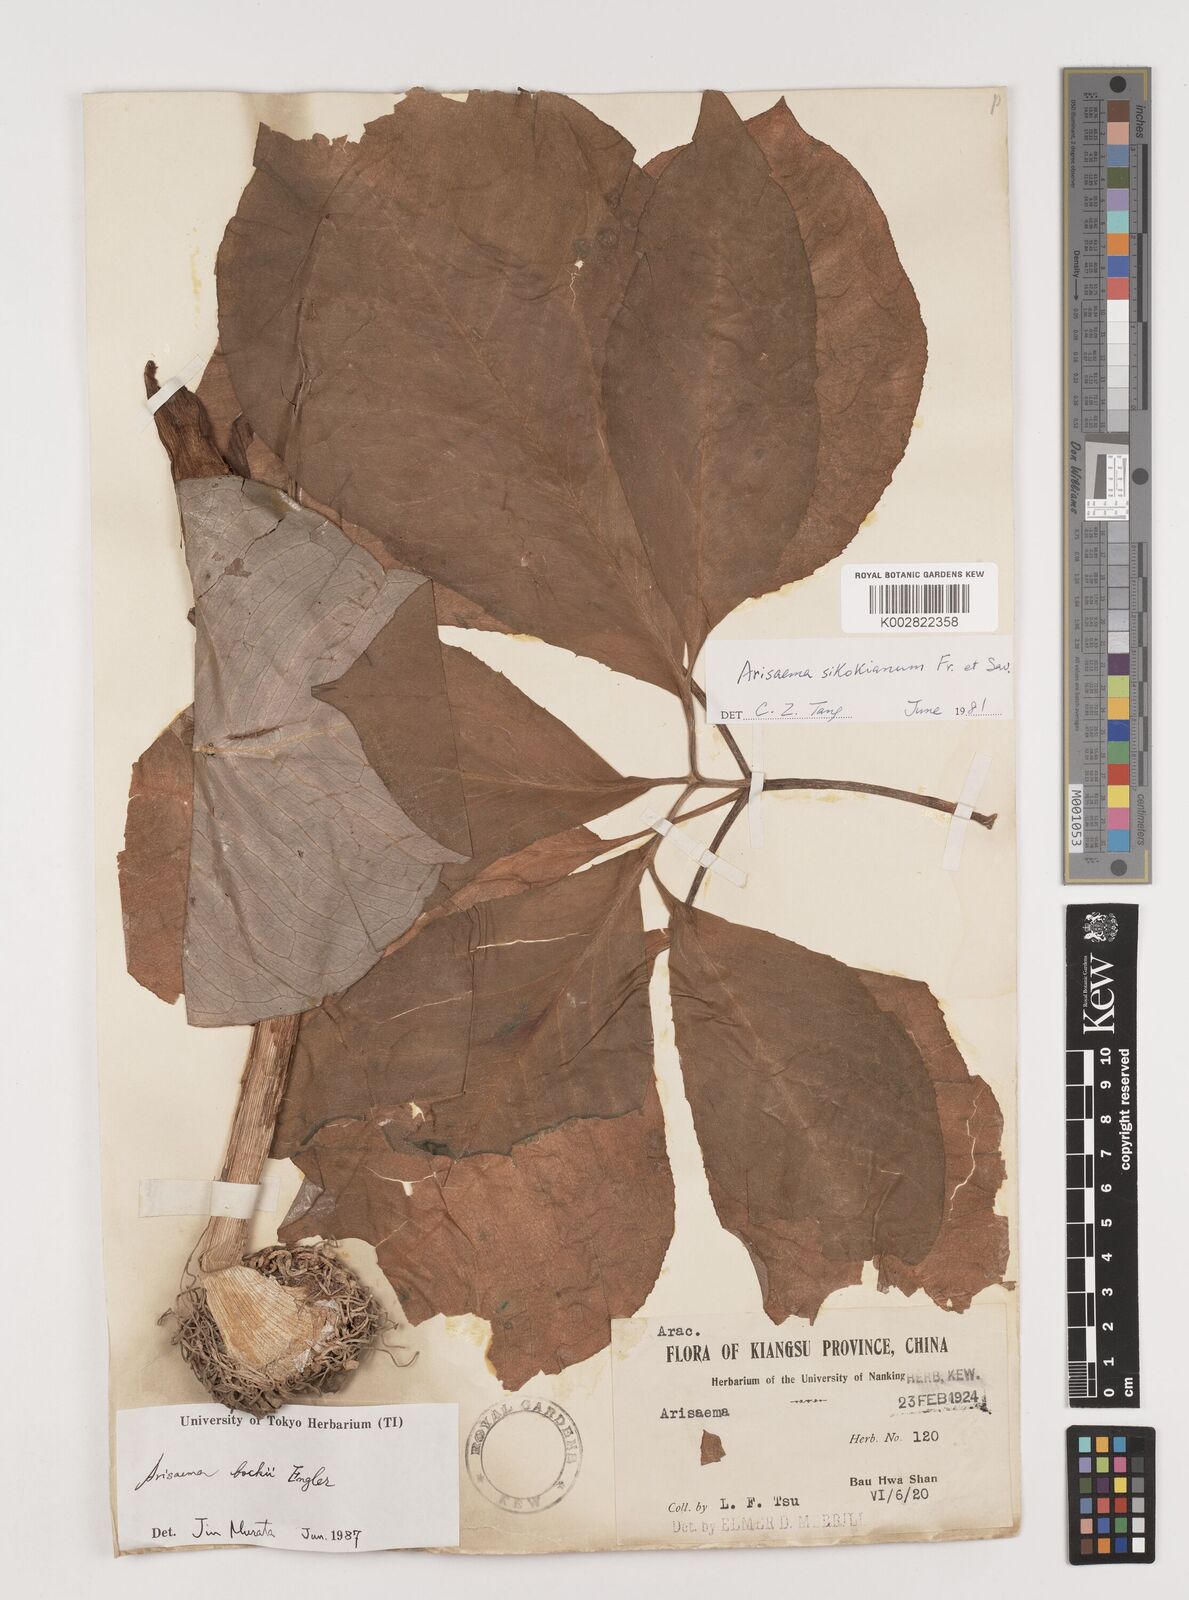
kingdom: Plantae
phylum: Tracheophyta
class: Liliopsida
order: Alismatales
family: Araceae
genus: Arisaema
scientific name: Arisaema bockii
